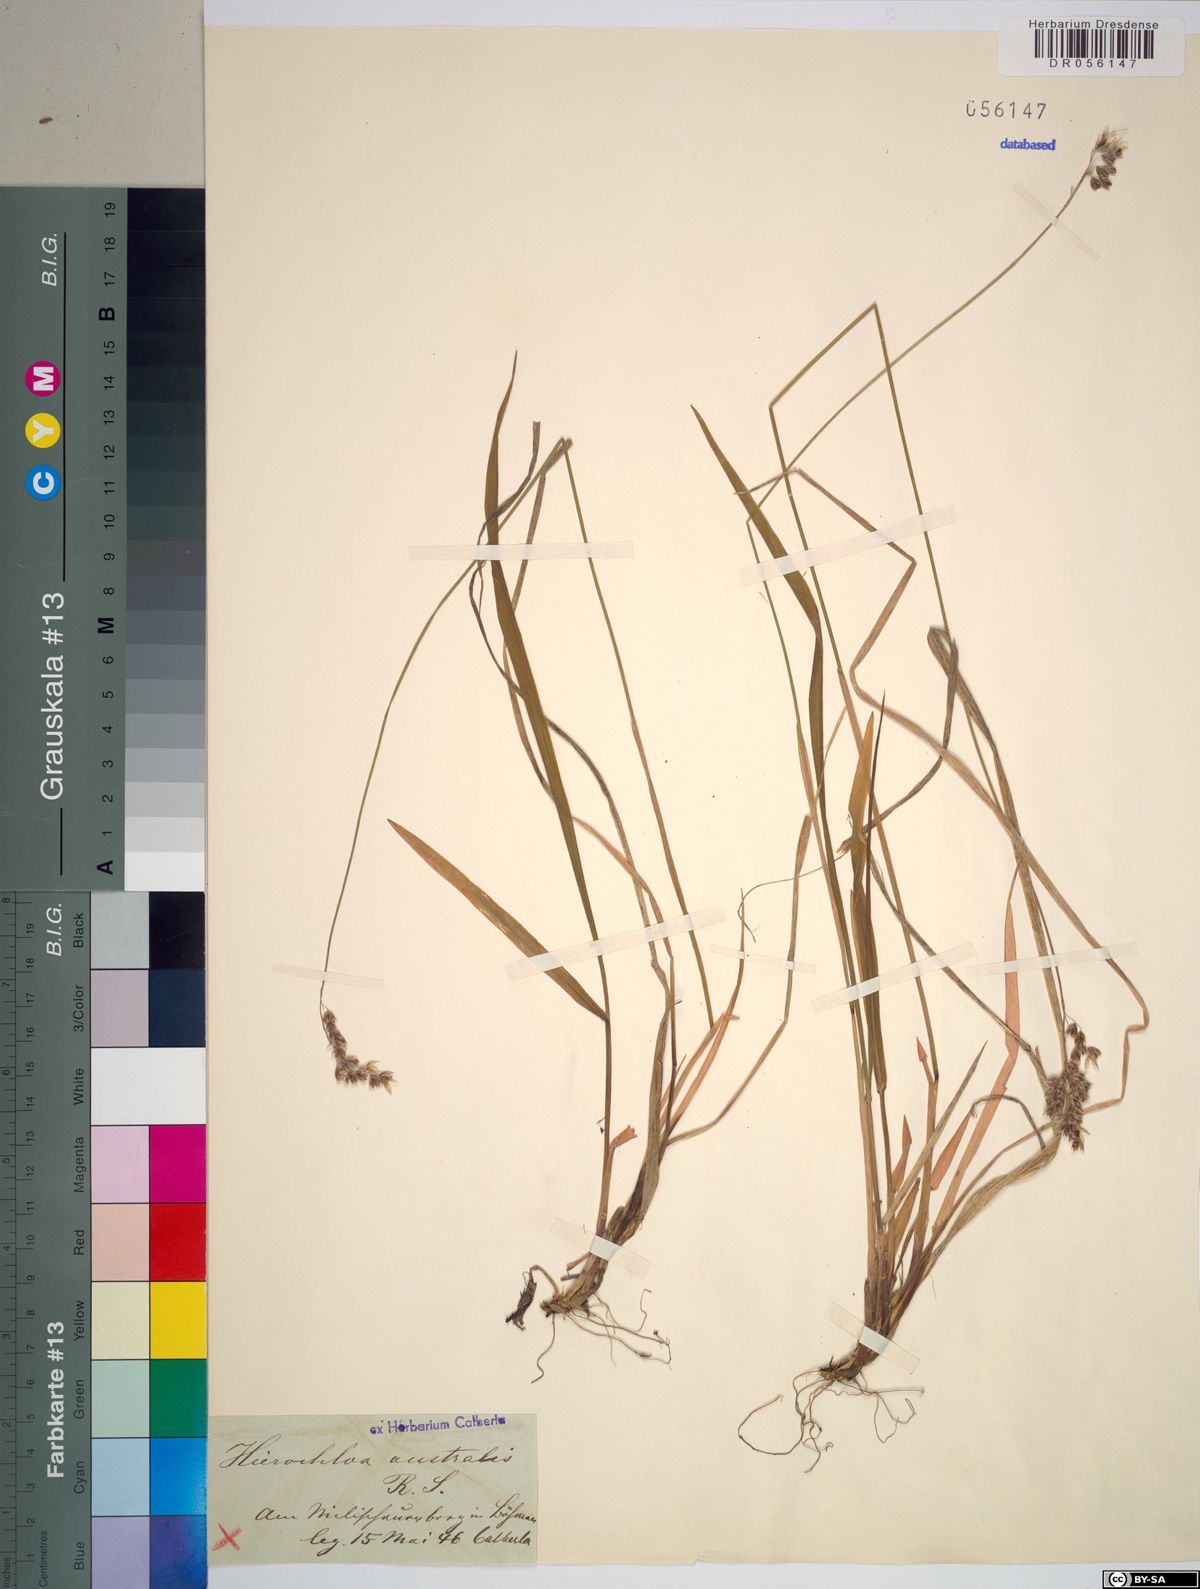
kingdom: Plantae
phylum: Tracheophyta
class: Liliopsida
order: Poales
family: Poaceae
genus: Anthoxanthum
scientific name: Anthoxanthum australe
